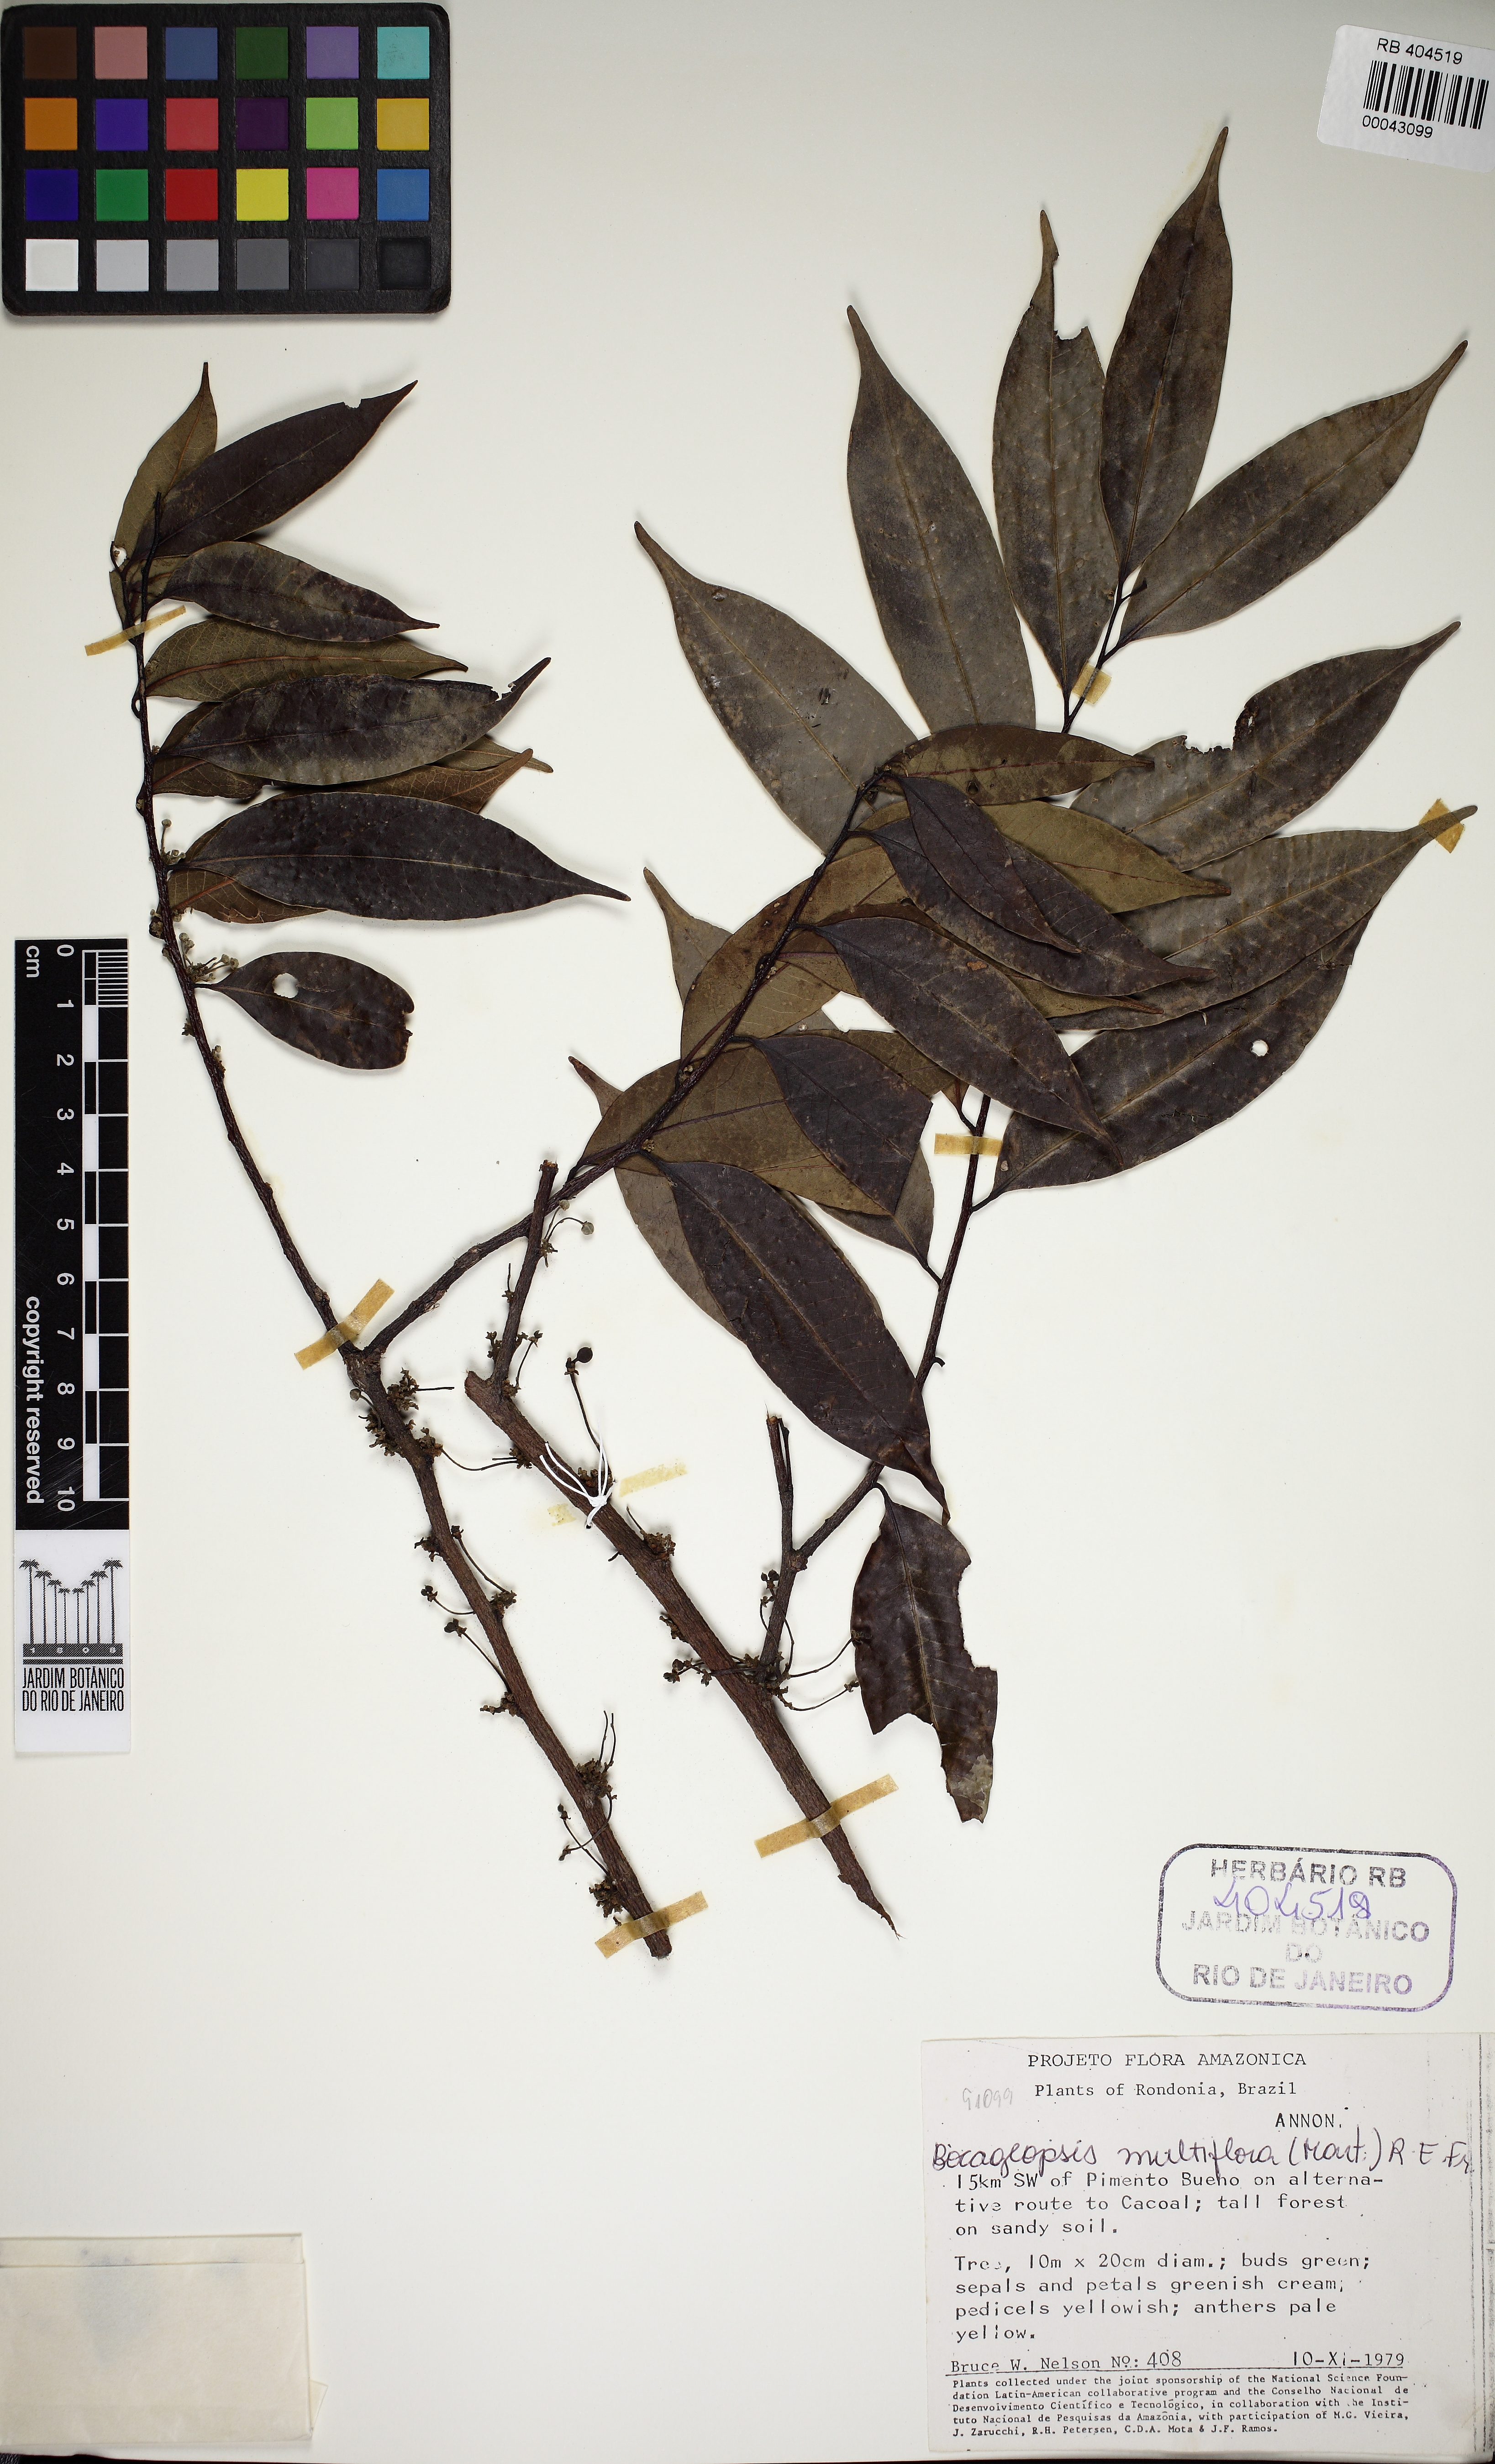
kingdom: Plantae
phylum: Tracheophyta
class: Magnoliopsida
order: Magnoliales
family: Annonaceae
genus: Bocageopsis
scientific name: Bocageopsis multiflora
